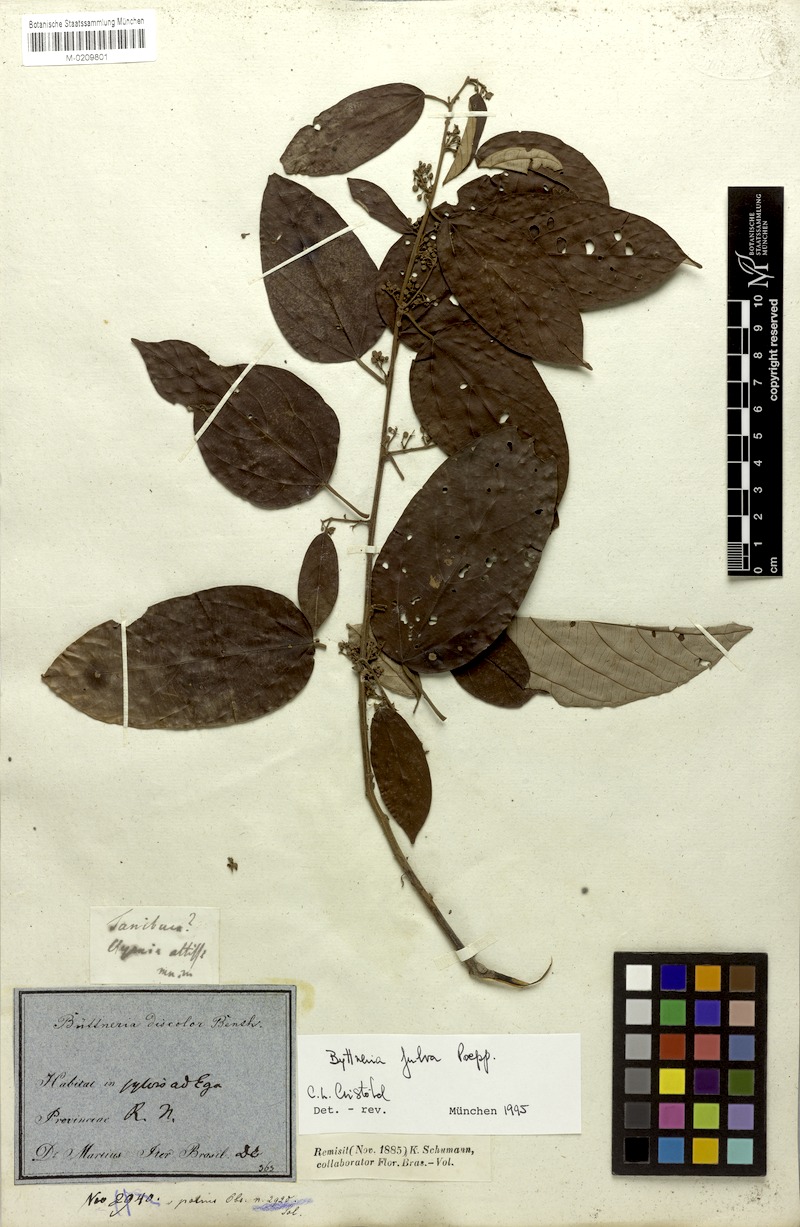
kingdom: Plantae
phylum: Tracheophyta
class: Magnoliopsida
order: Malvales
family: Malvaceae
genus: Byttneria
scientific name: Byttneria fulva
